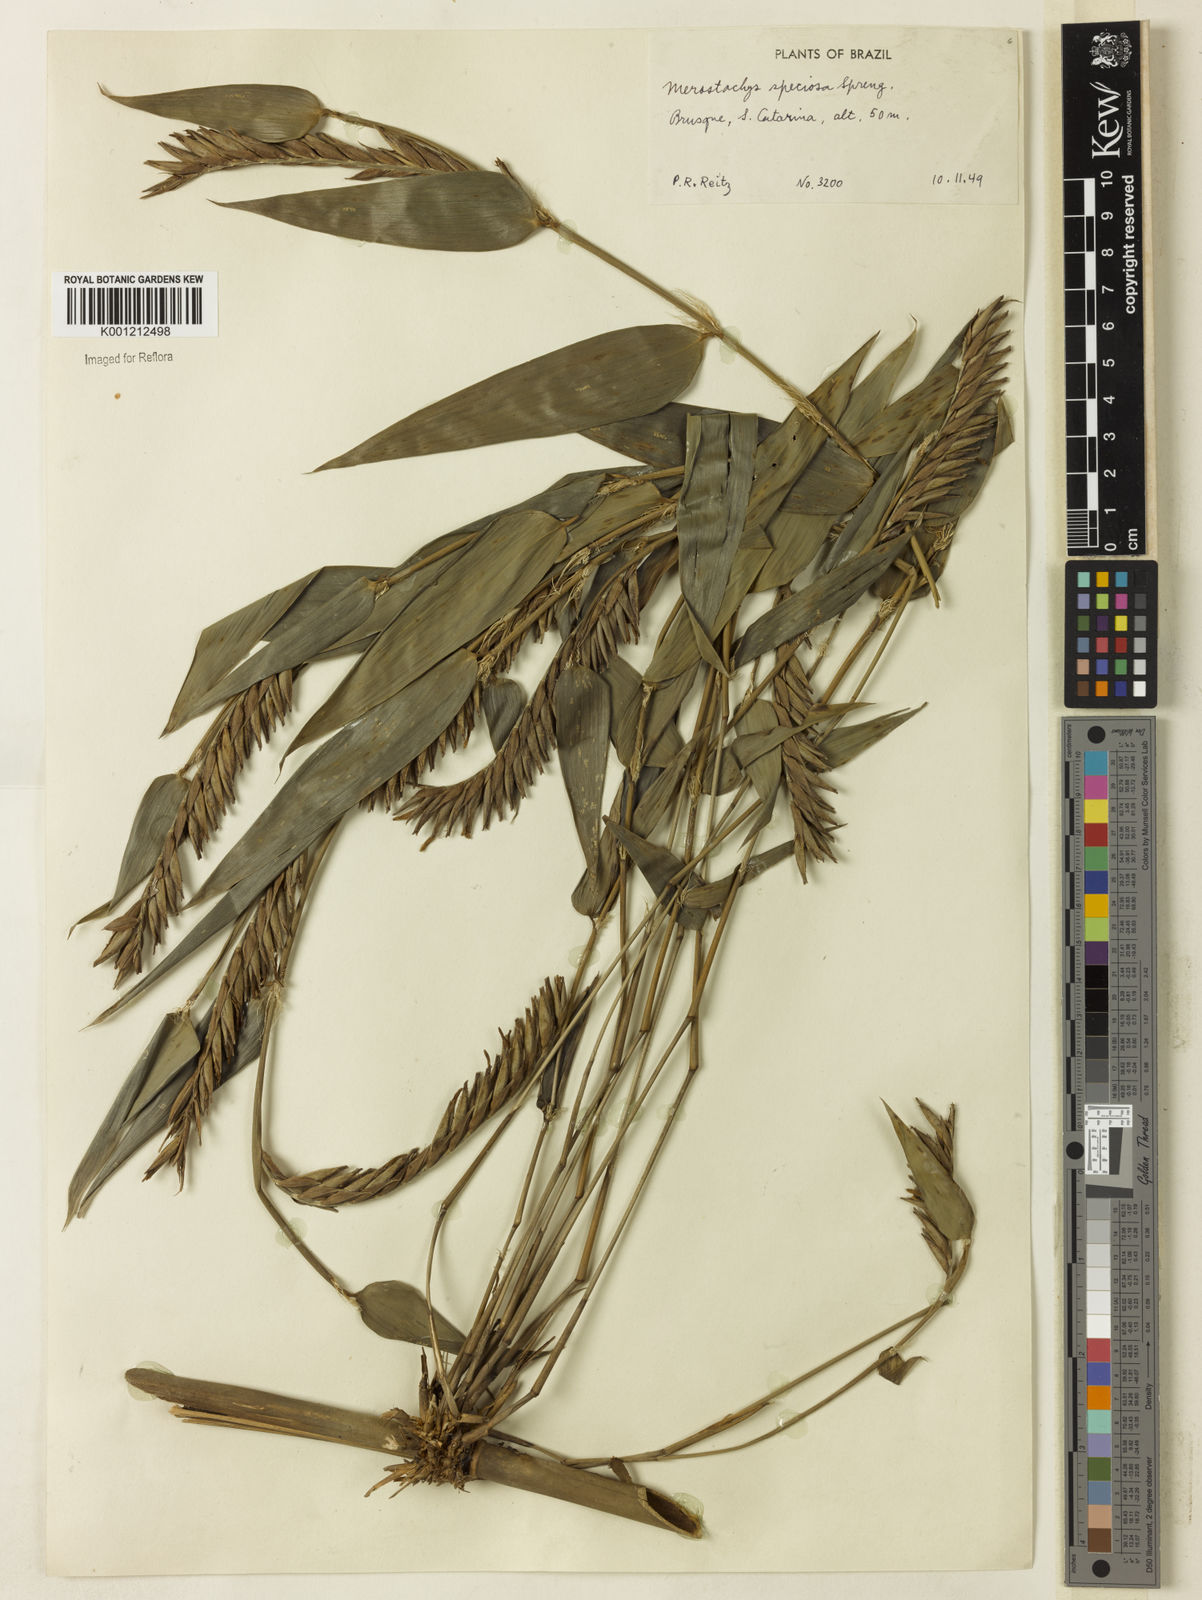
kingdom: Plantae
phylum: Tracheophyta
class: Liliopsida
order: Poales
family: Poaceae
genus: Merostachys
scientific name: Merostachys speciosa
